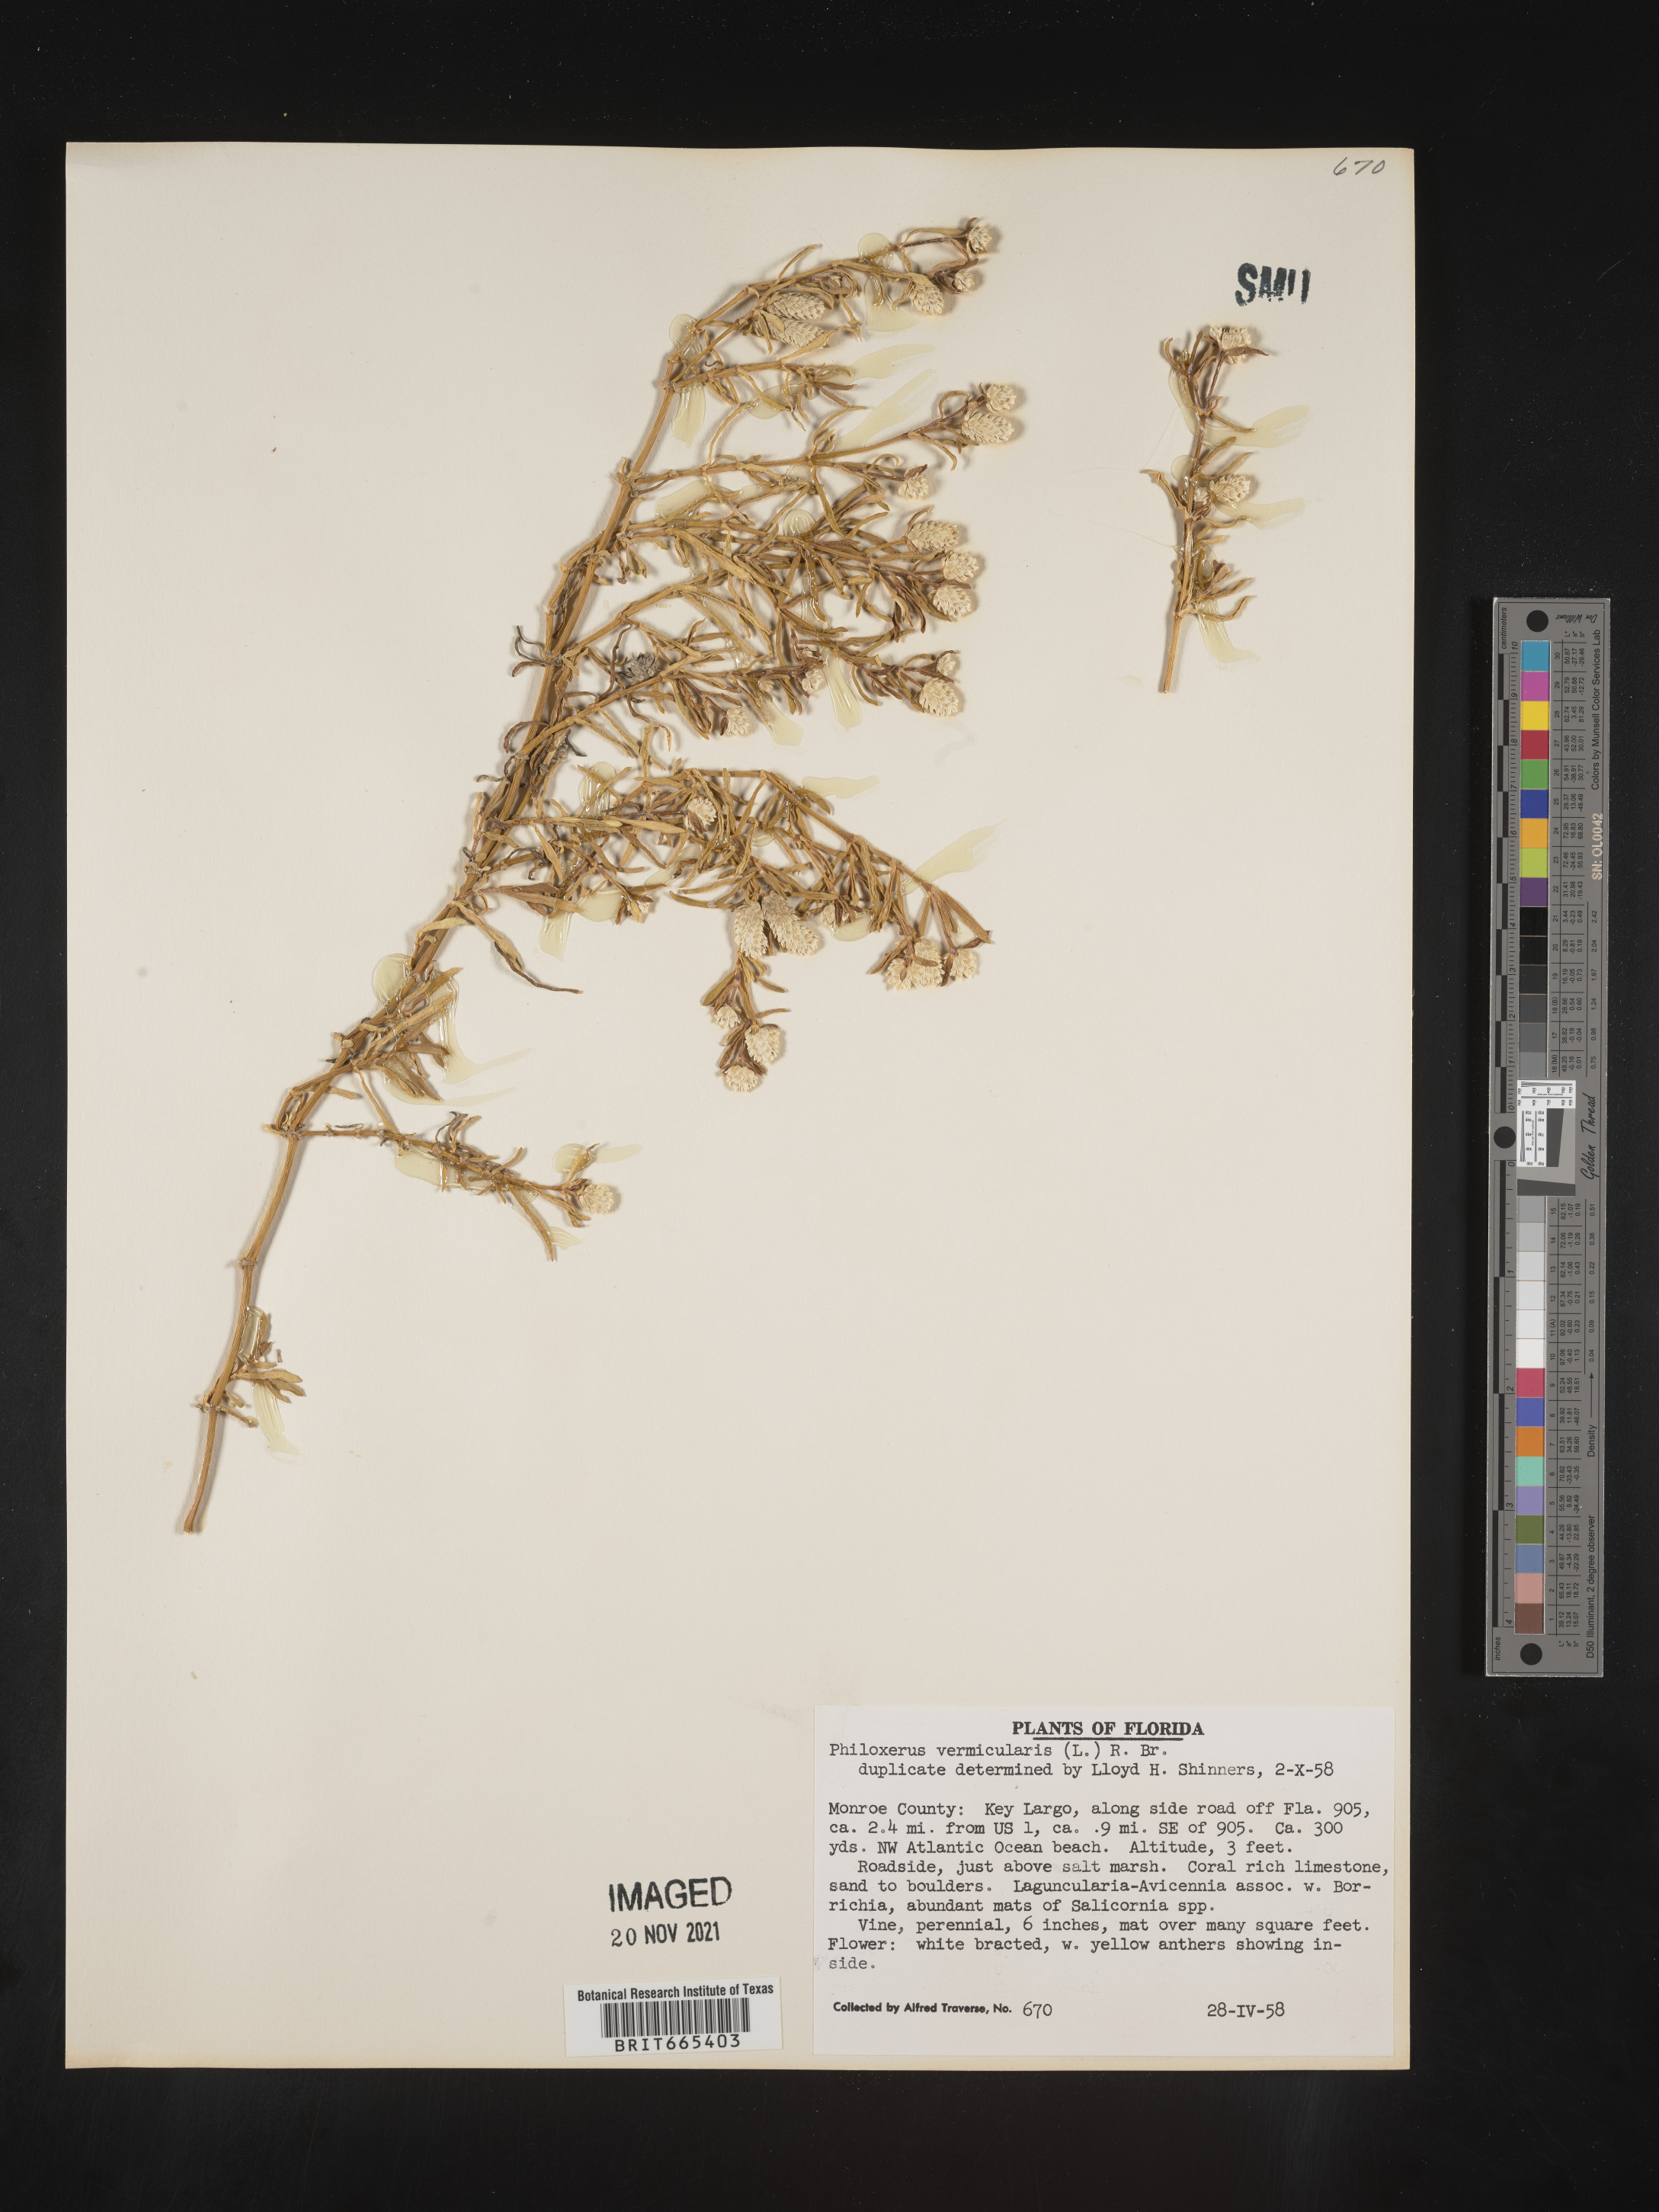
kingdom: Plantae
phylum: Tracheophyta
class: Magnoliopsida
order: Caryophyllales
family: Amaranthaceae
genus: Gomphrena
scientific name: Gomphrena
